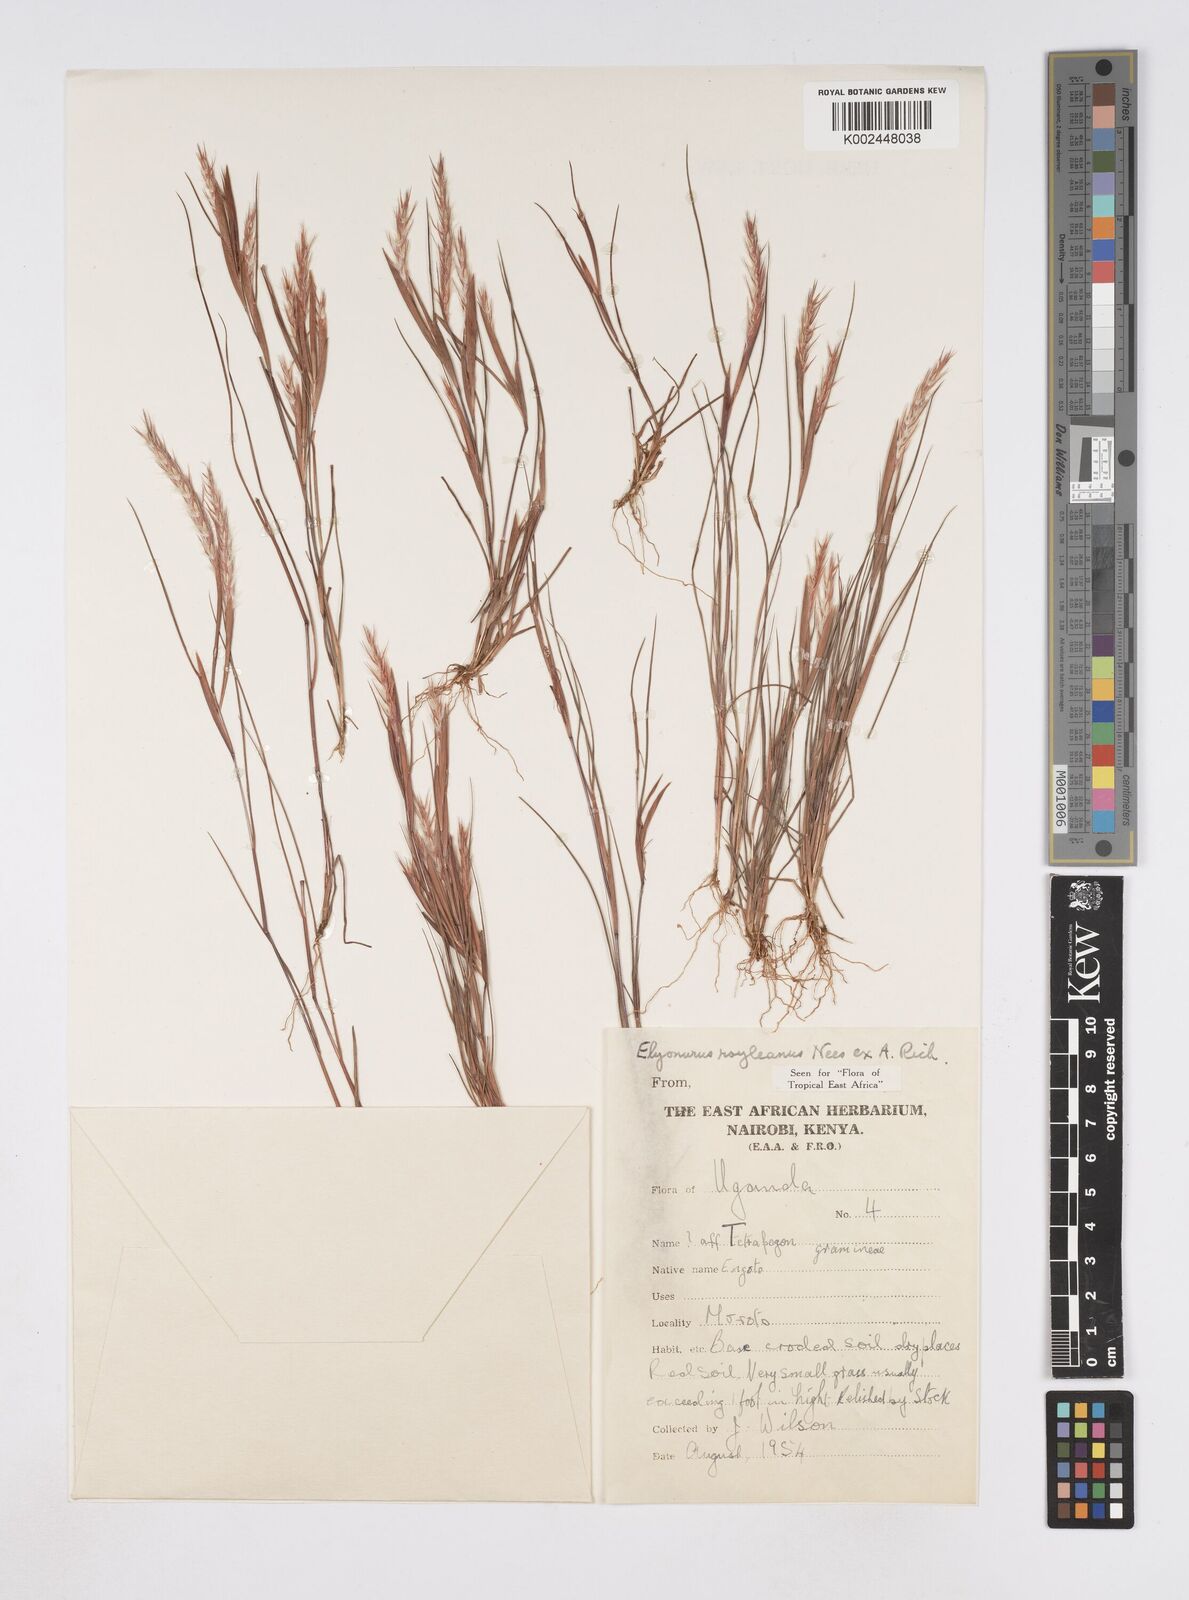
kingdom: Plantae
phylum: Tracheophyta
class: Liliopsida
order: Poales
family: Poaceae
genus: Elionurus
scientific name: Elionurus royleanus
